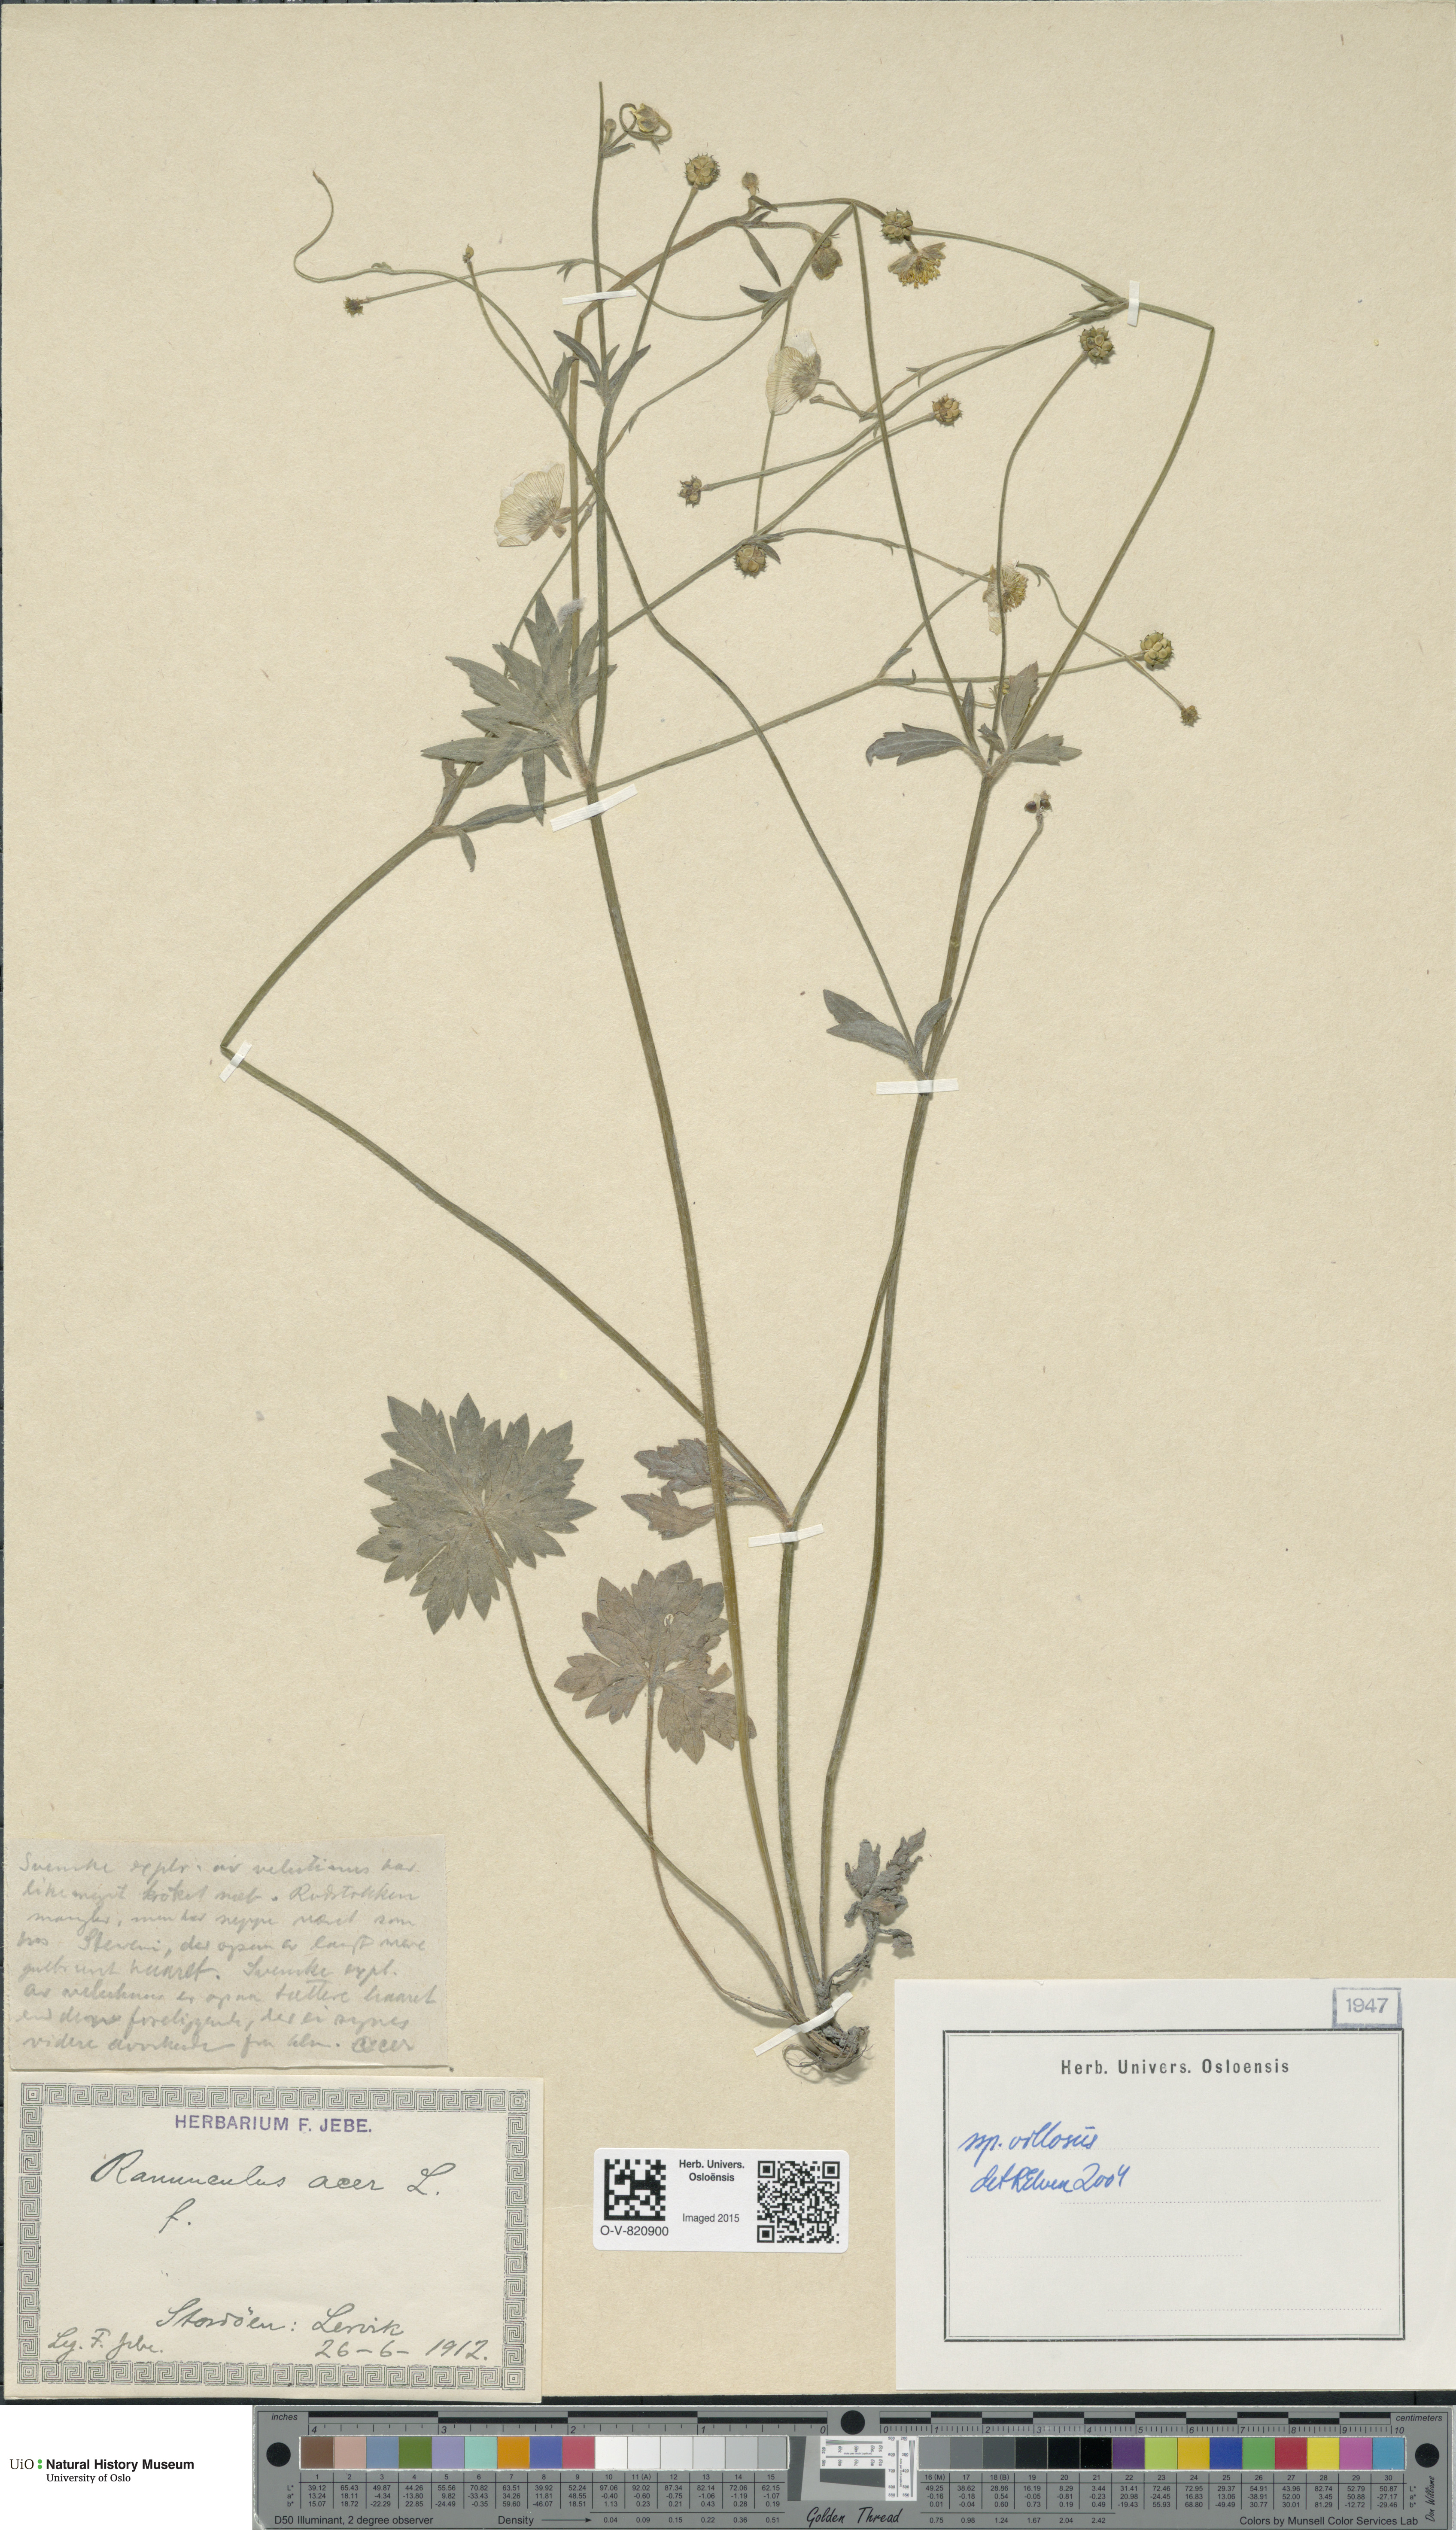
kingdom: Plantae
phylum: Tracheophyta
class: Magnoliopsida
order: Ranunculales
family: Ranunculaceae
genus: Ranunculus
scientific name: Ranunculus propinquus
